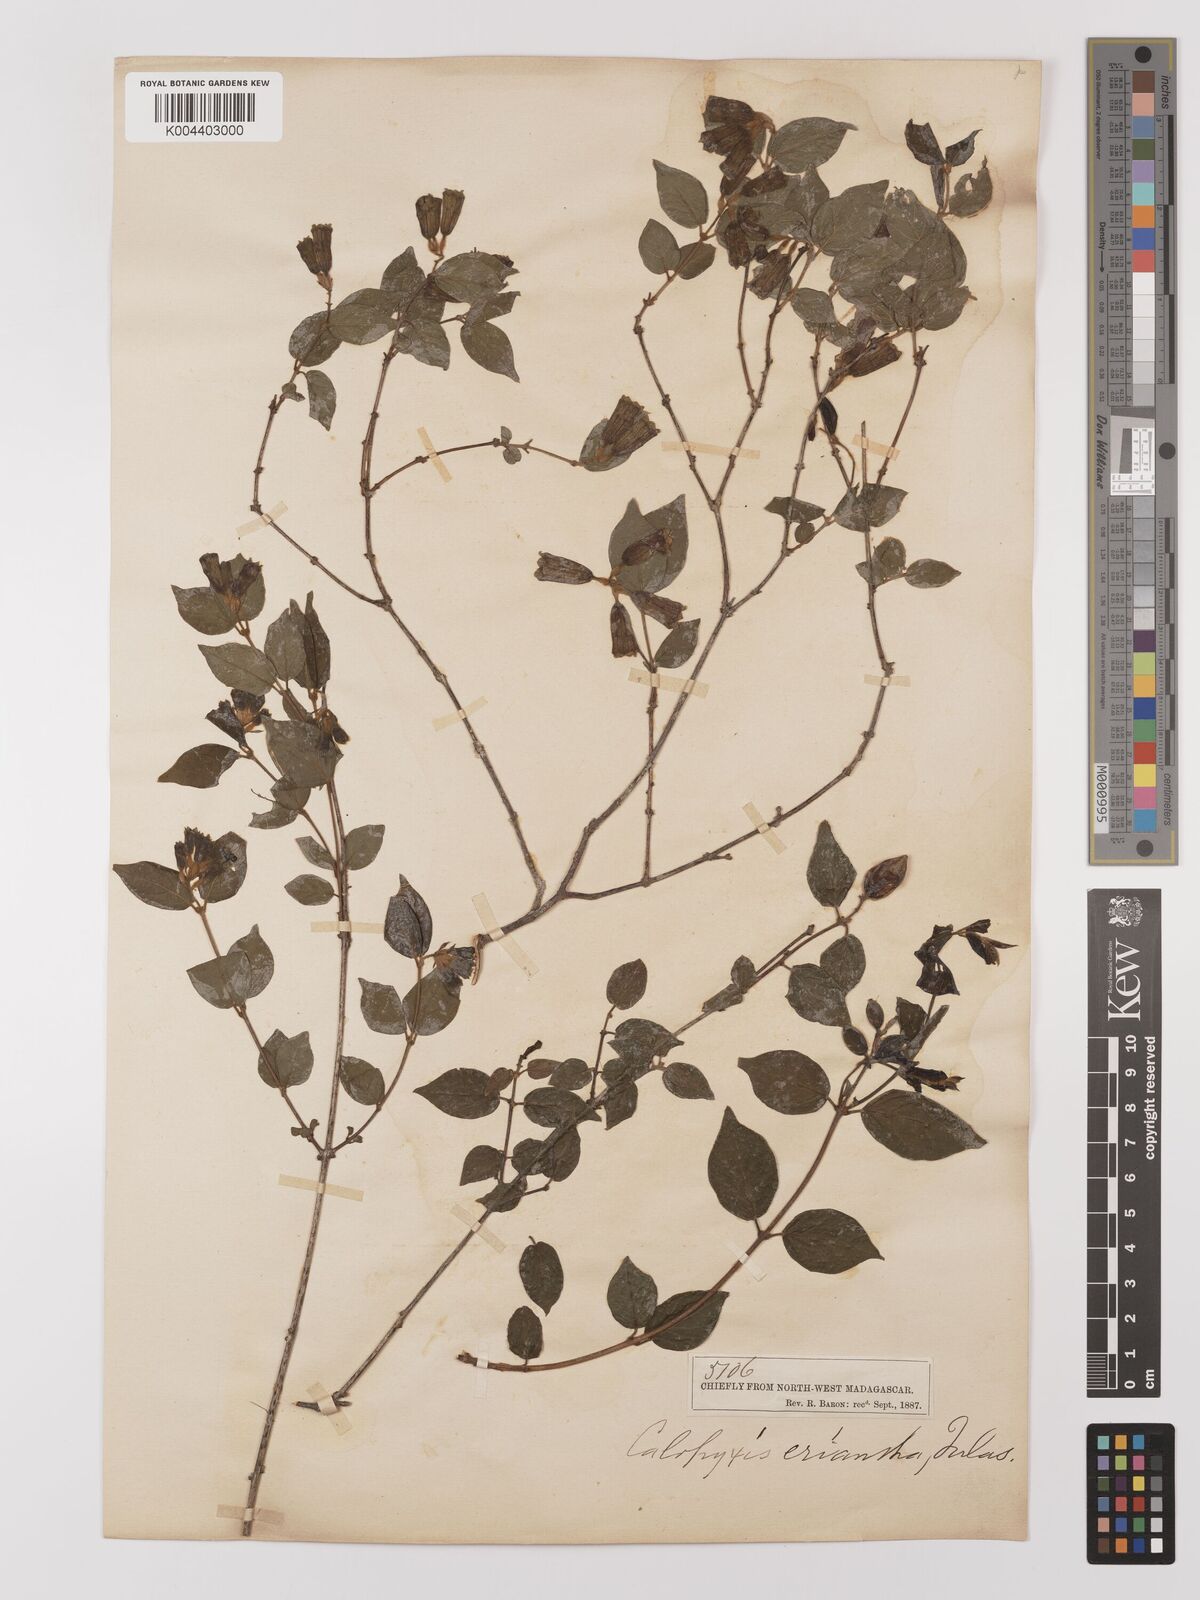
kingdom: Plantae
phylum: Tracheophyta
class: Magnoliopsida
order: Myrtales
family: Combretaceae
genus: Combretum
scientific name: Combretum longicollum
